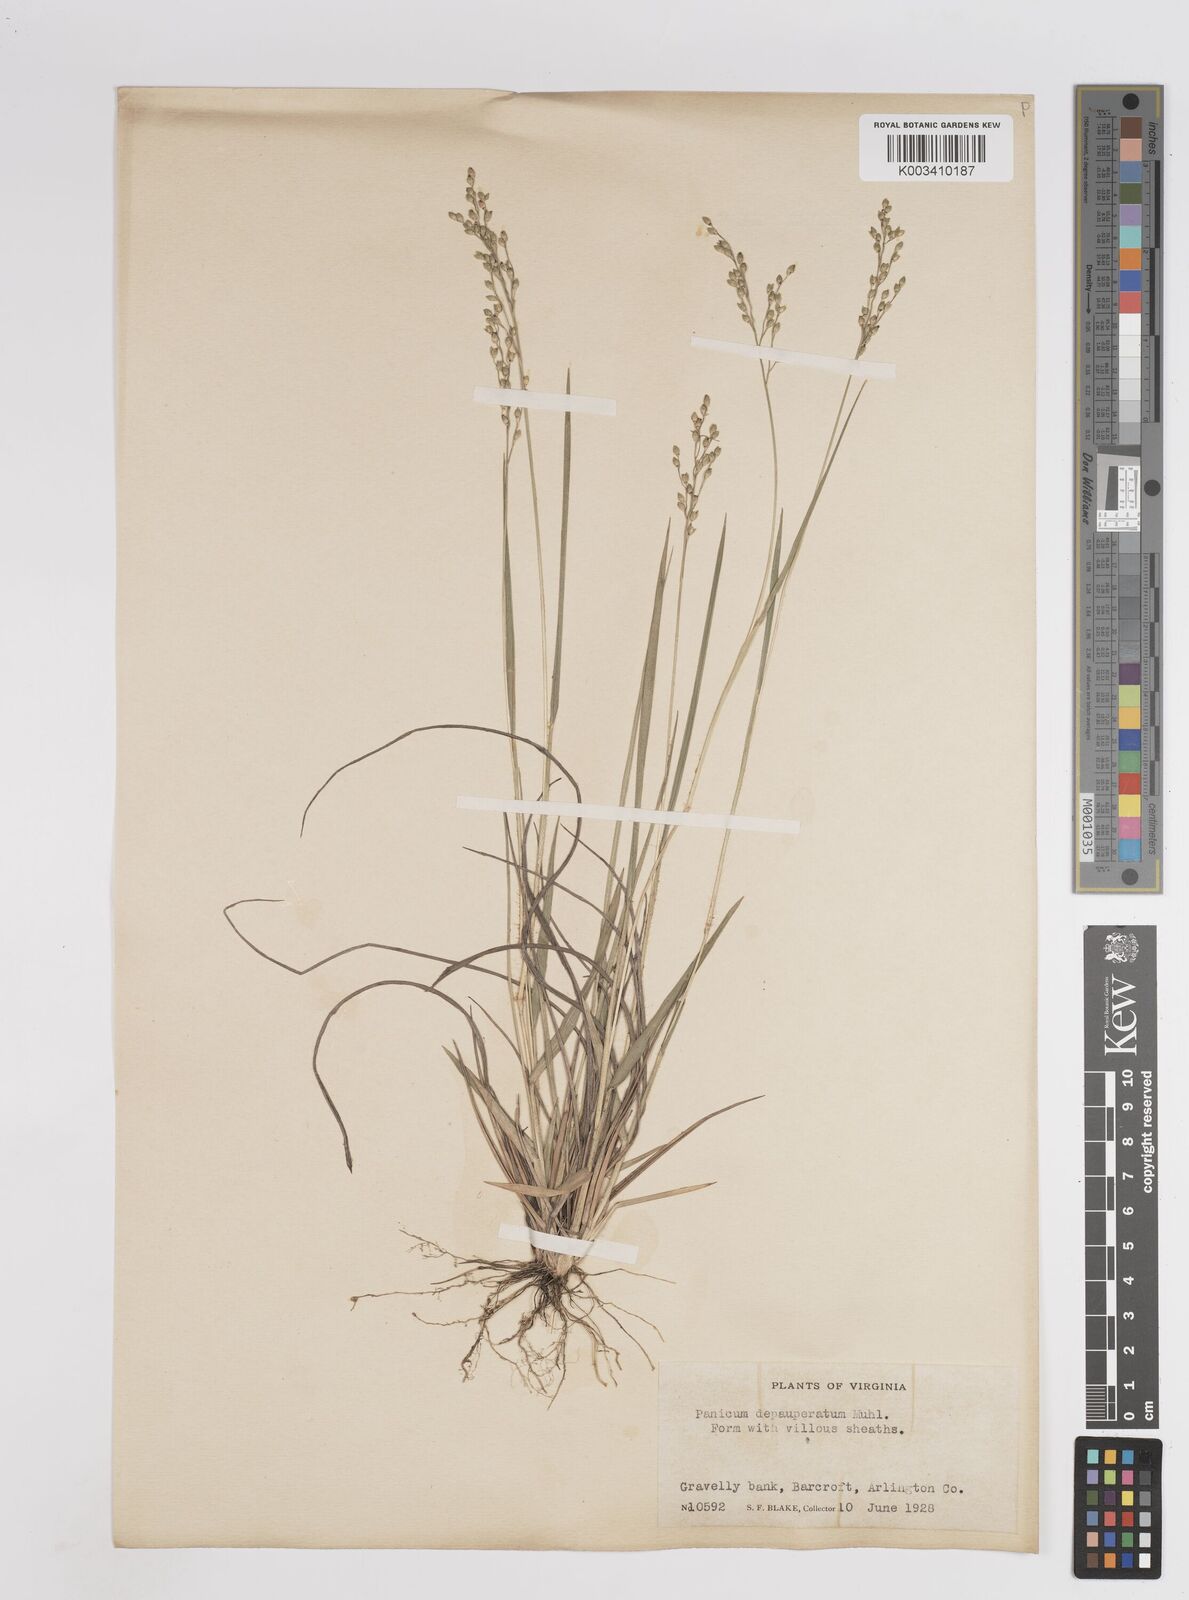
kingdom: Plantae
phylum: Tracheophyta
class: Liliopsida
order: Poales
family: Poaceae
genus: Dichanthelium
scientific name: Dichanthelium depauperatum
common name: Depauperate panicgrass
